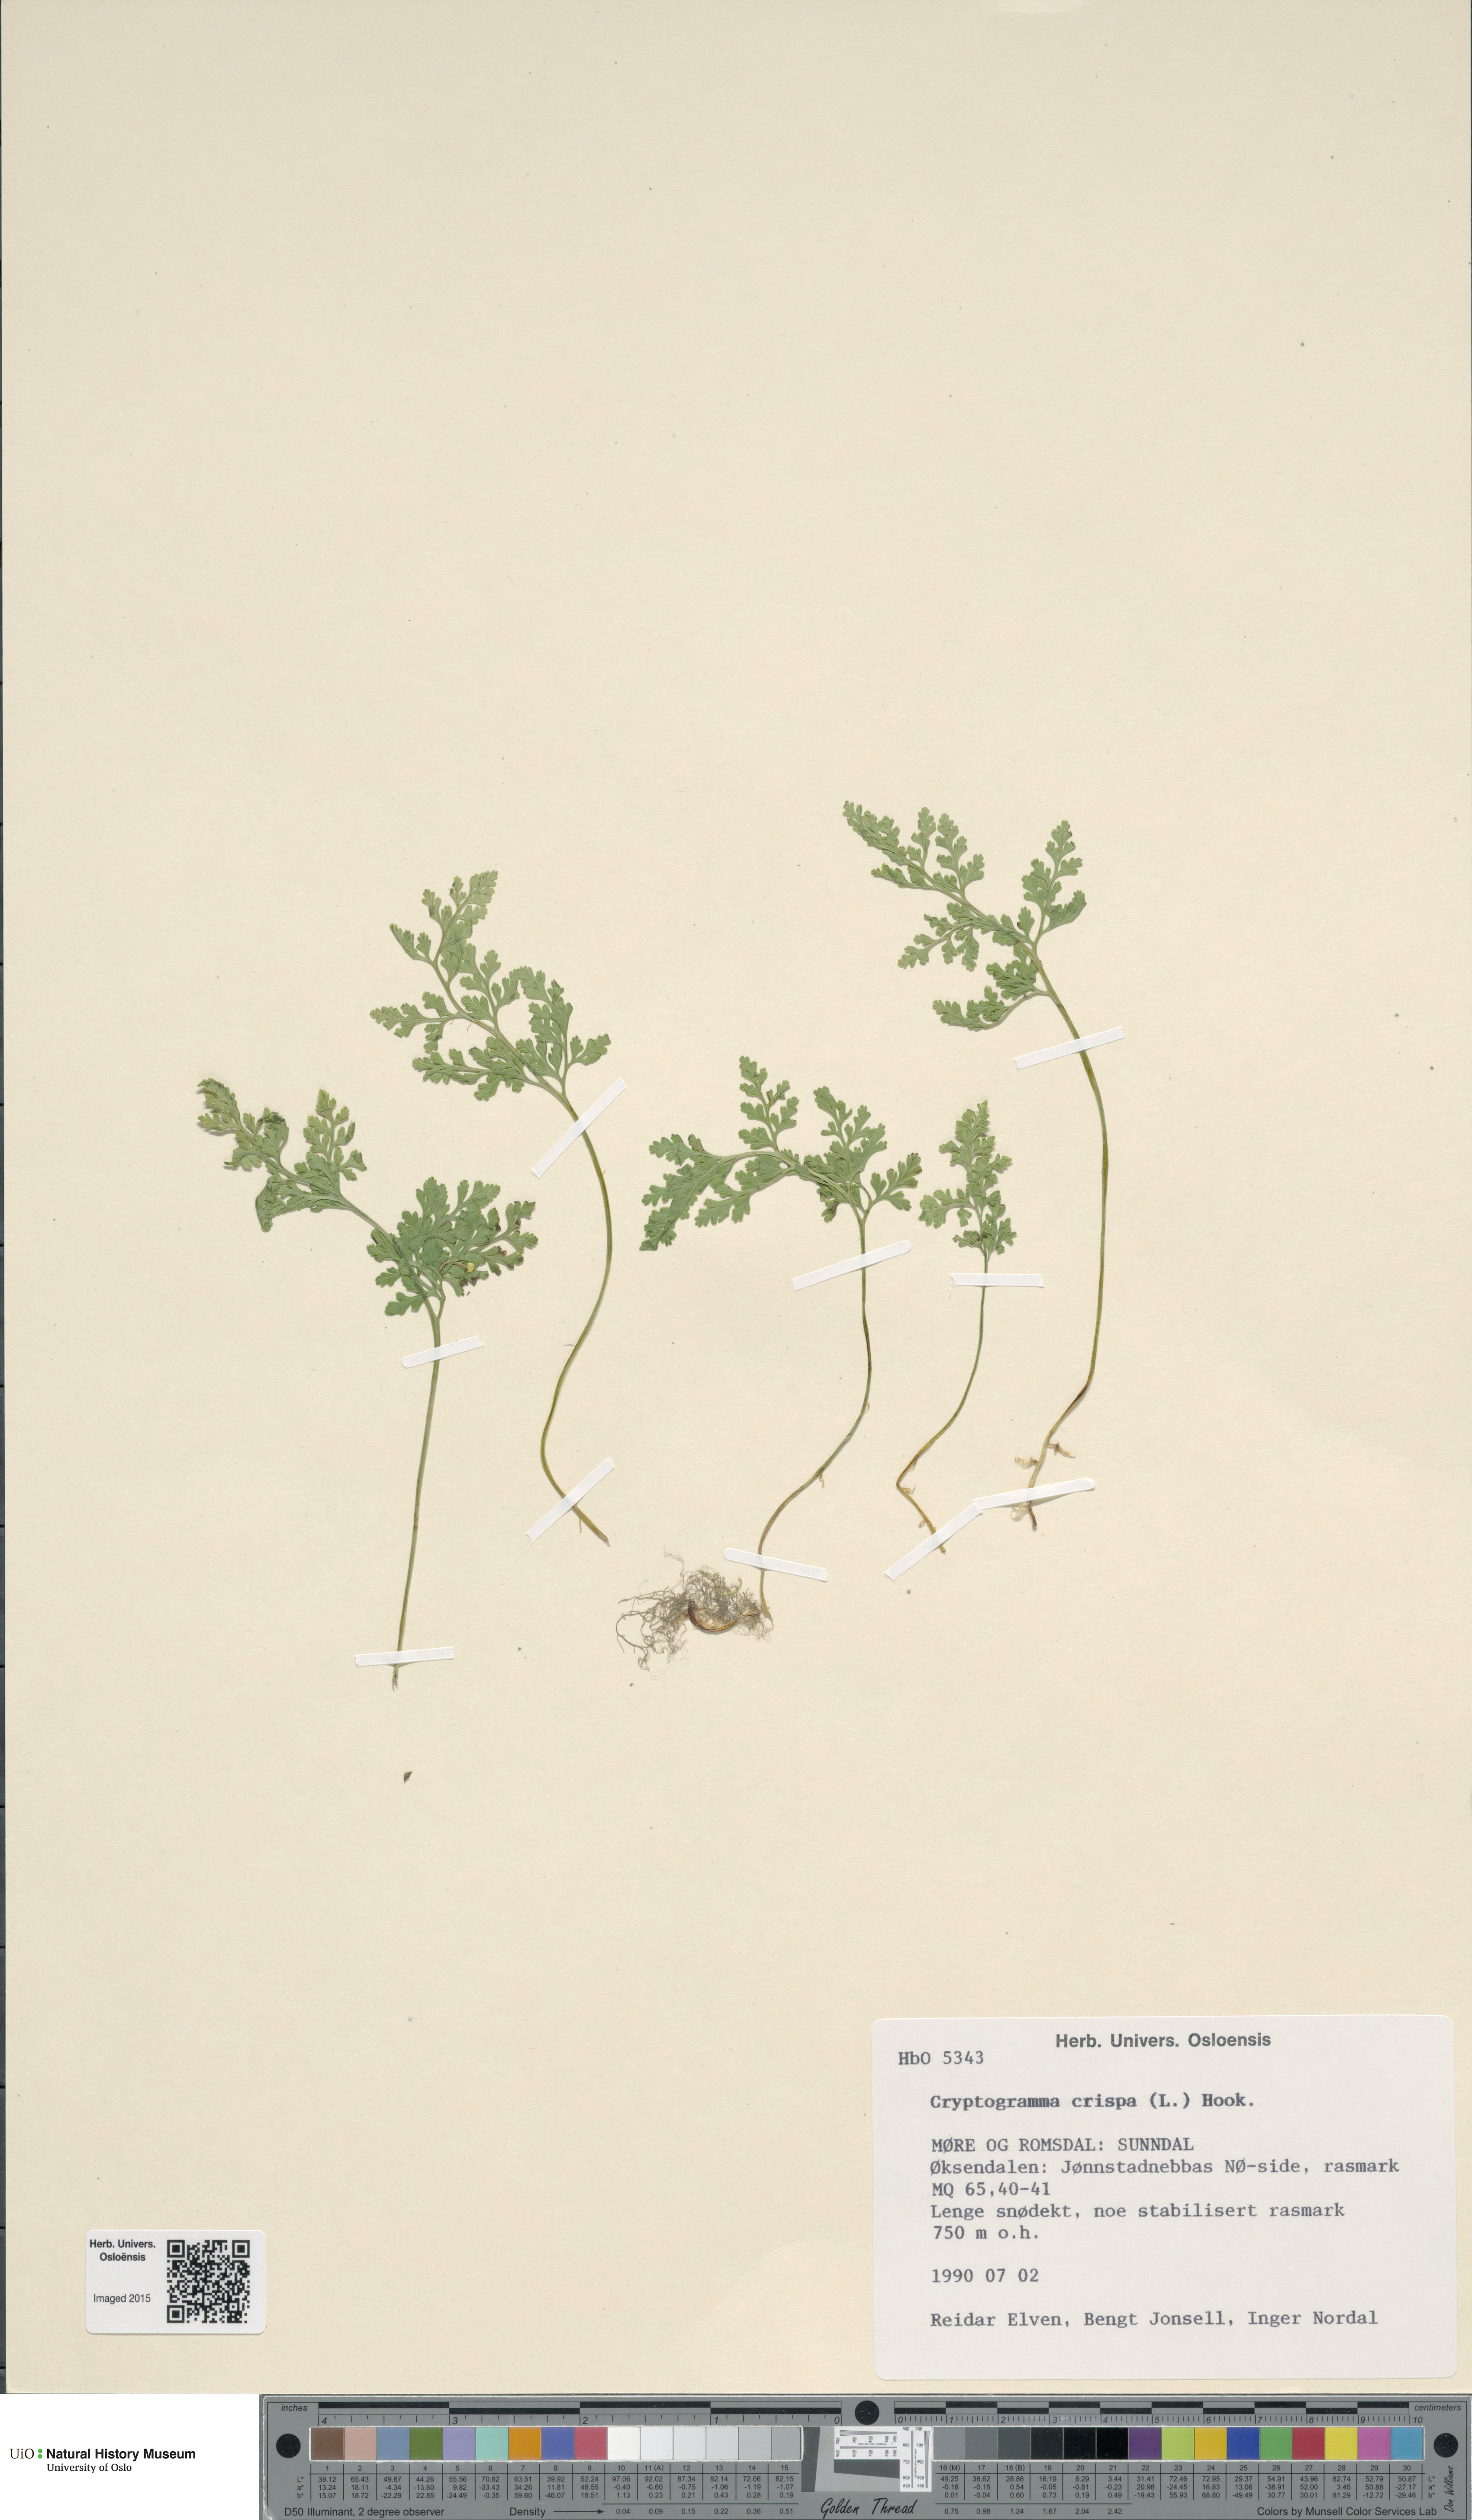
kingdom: Plantae
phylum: Tracheophyta
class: Polypodiopsida
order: Polypodiales
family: Pteridaceae
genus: Cryptogramma
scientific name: Cryptogramma crispa
